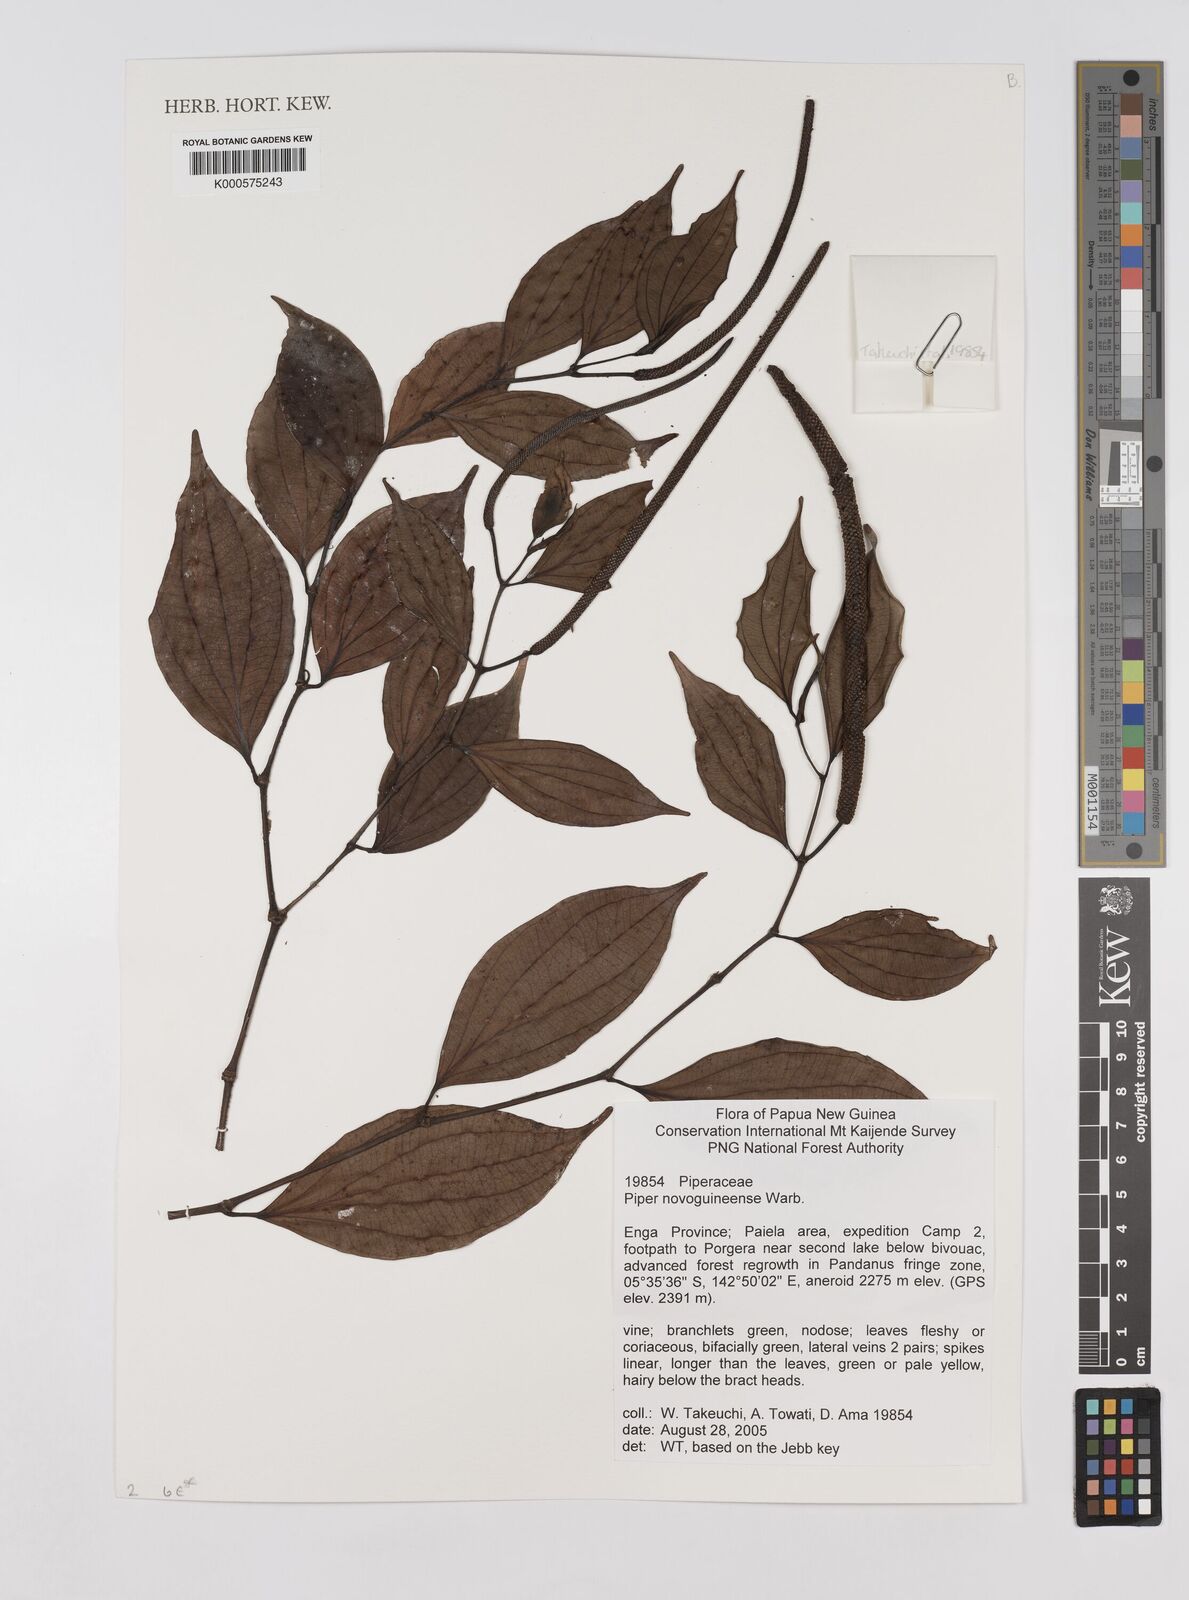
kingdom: Plantae
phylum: Tracheophyta
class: Magnoliopsida
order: Piperales
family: Piperaceae
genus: Piper
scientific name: Piper macropiper
